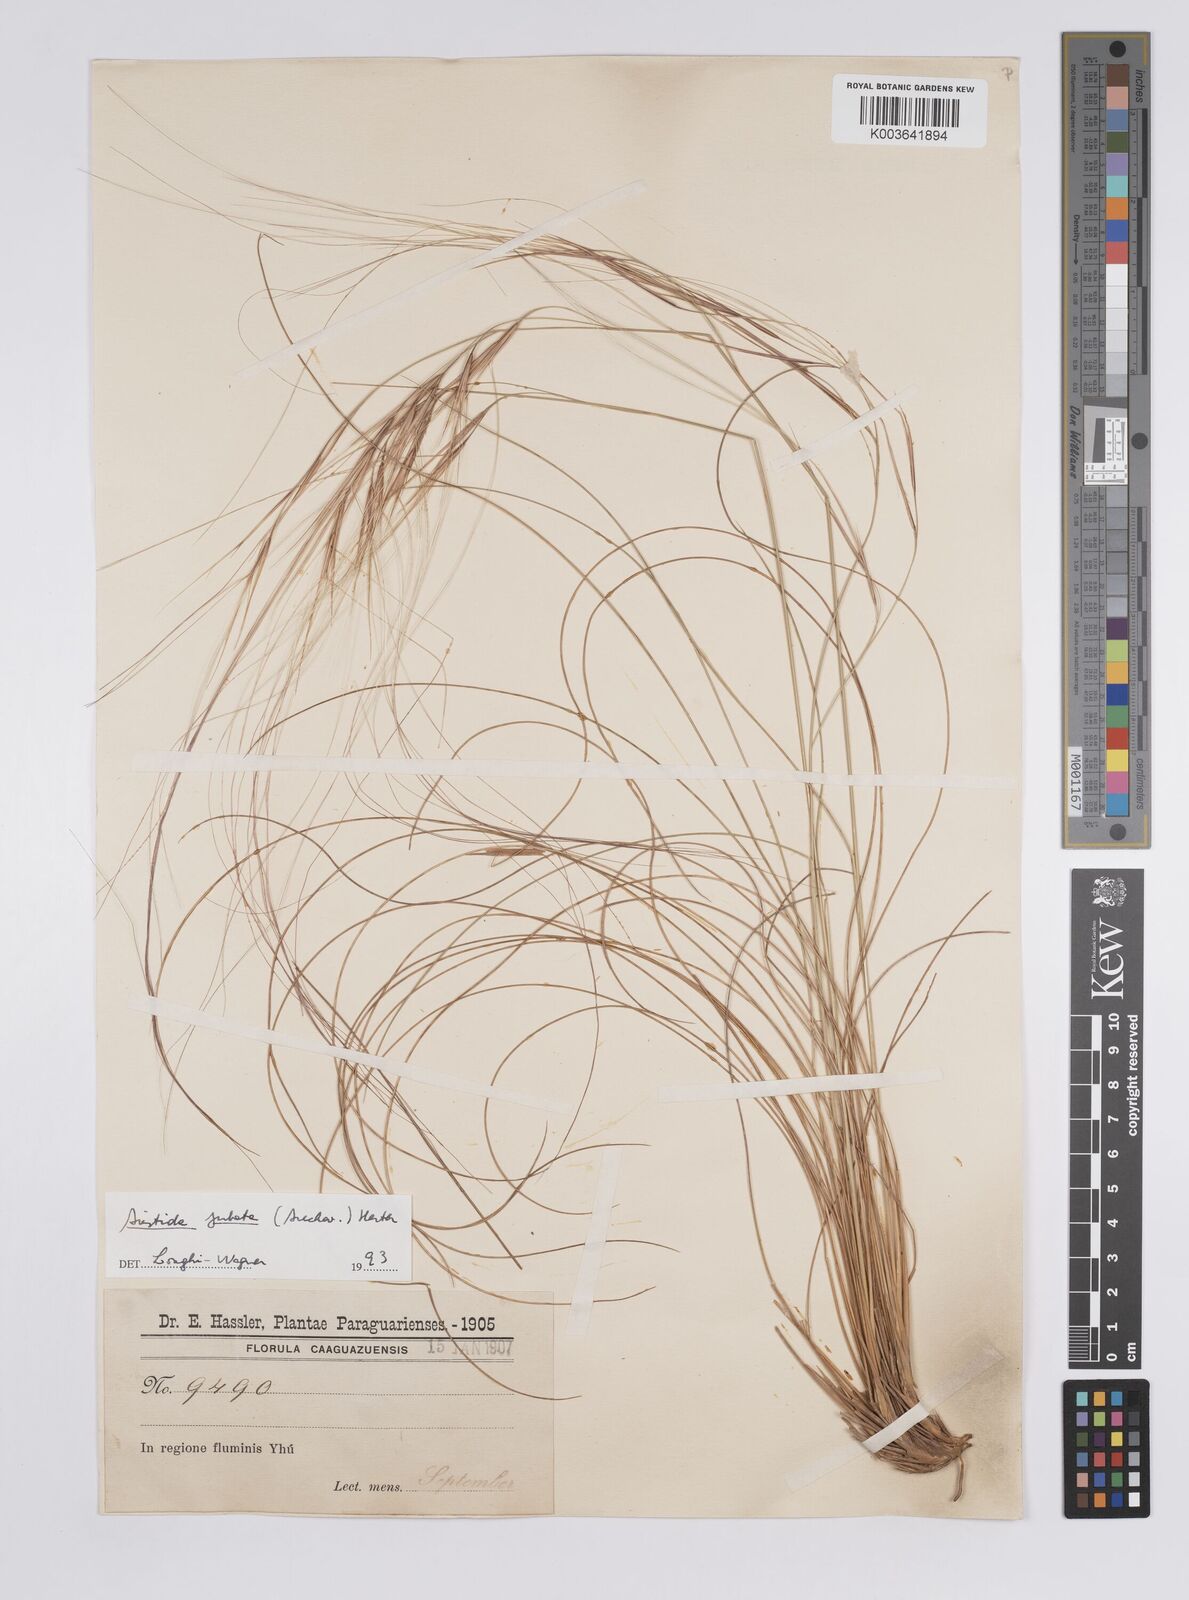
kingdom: Plantae
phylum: Tracheophyta
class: Liliopsida
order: Poales
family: Poaceae
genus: Aristida
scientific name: Aristida jubata
